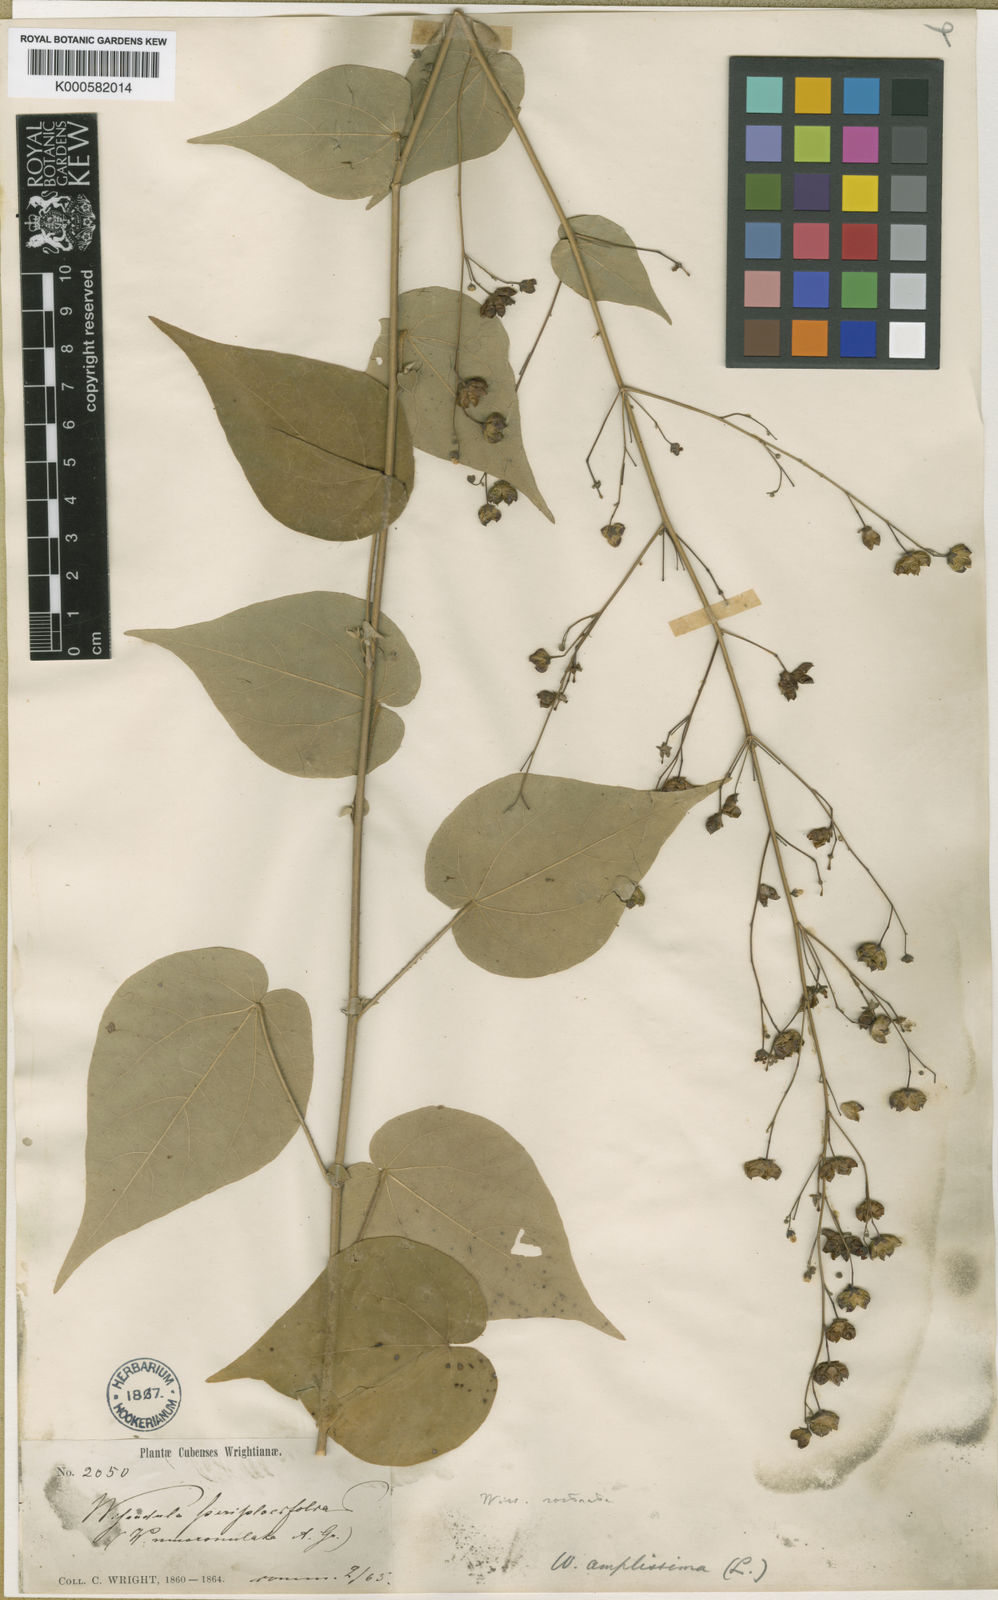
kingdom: Plantae
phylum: Tracheophyta
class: Magnoliopsida
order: Malvales
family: Malvaceae
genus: Wissadula
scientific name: Wissadula amplissima
